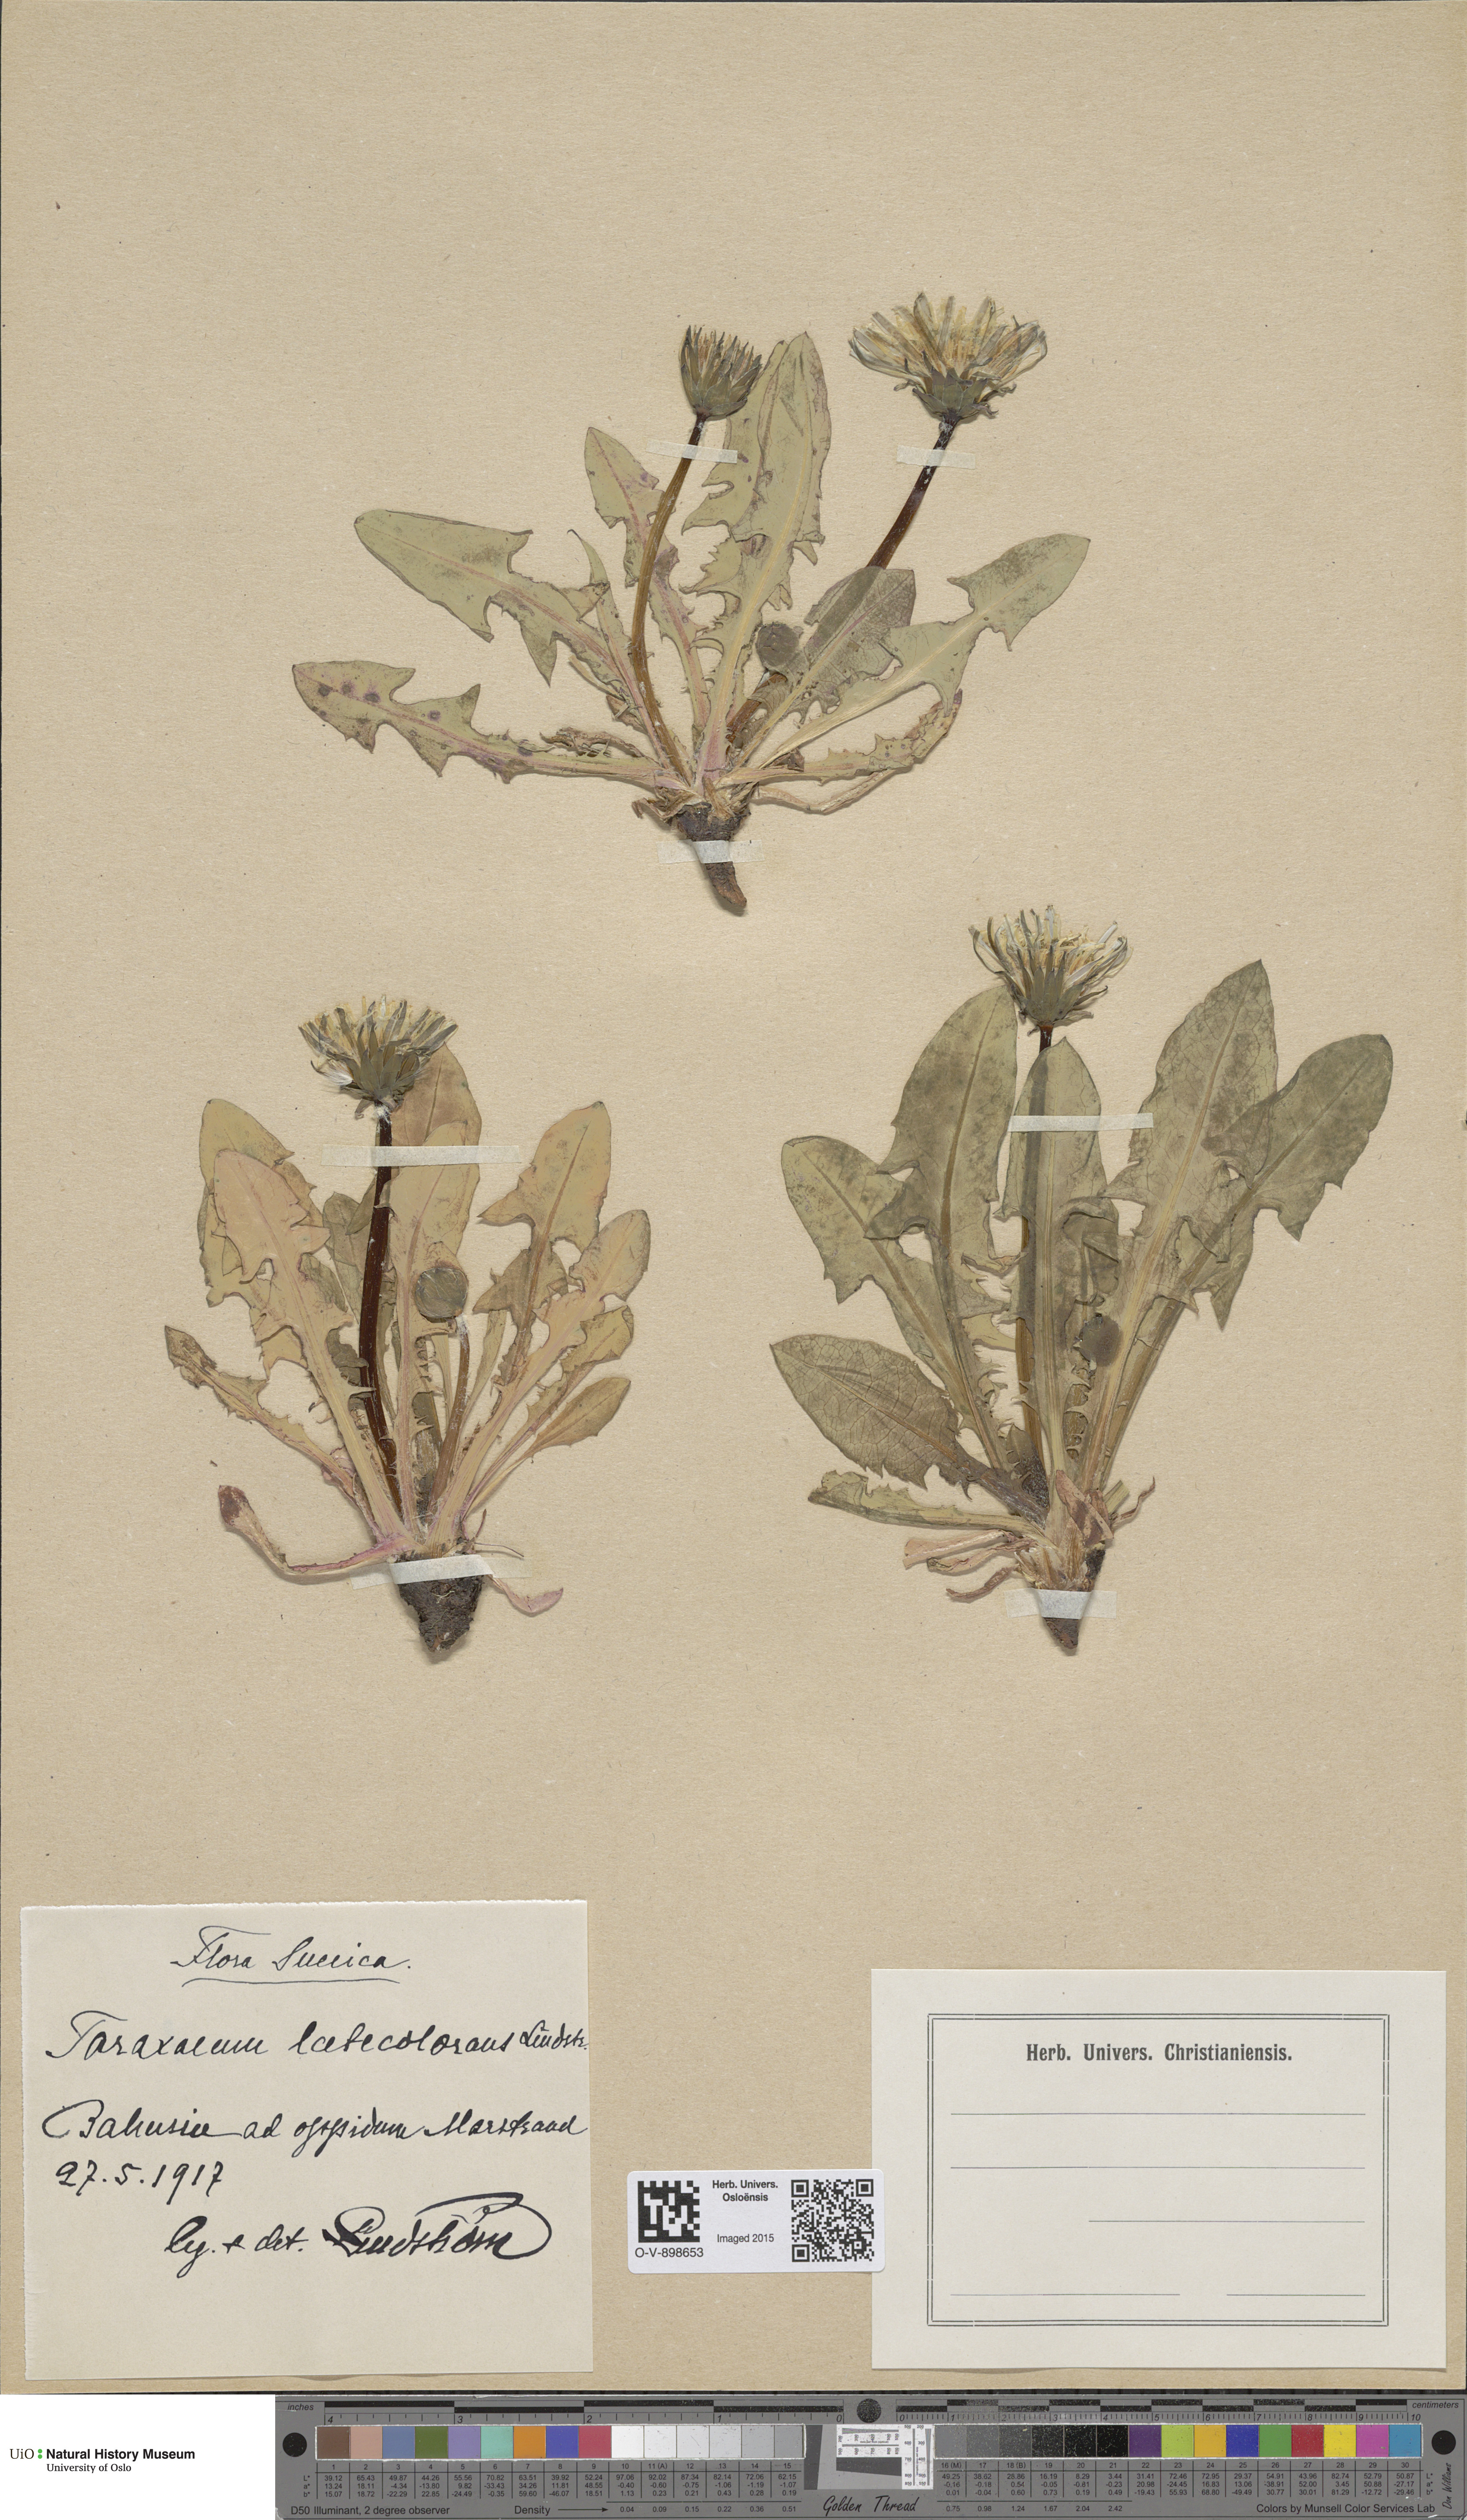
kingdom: Plantae
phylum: Tracheophyta
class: Magnoliopsida
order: Asterales
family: Asteraceae
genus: Taraxacum
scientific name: Taraxacum laetecolorans
